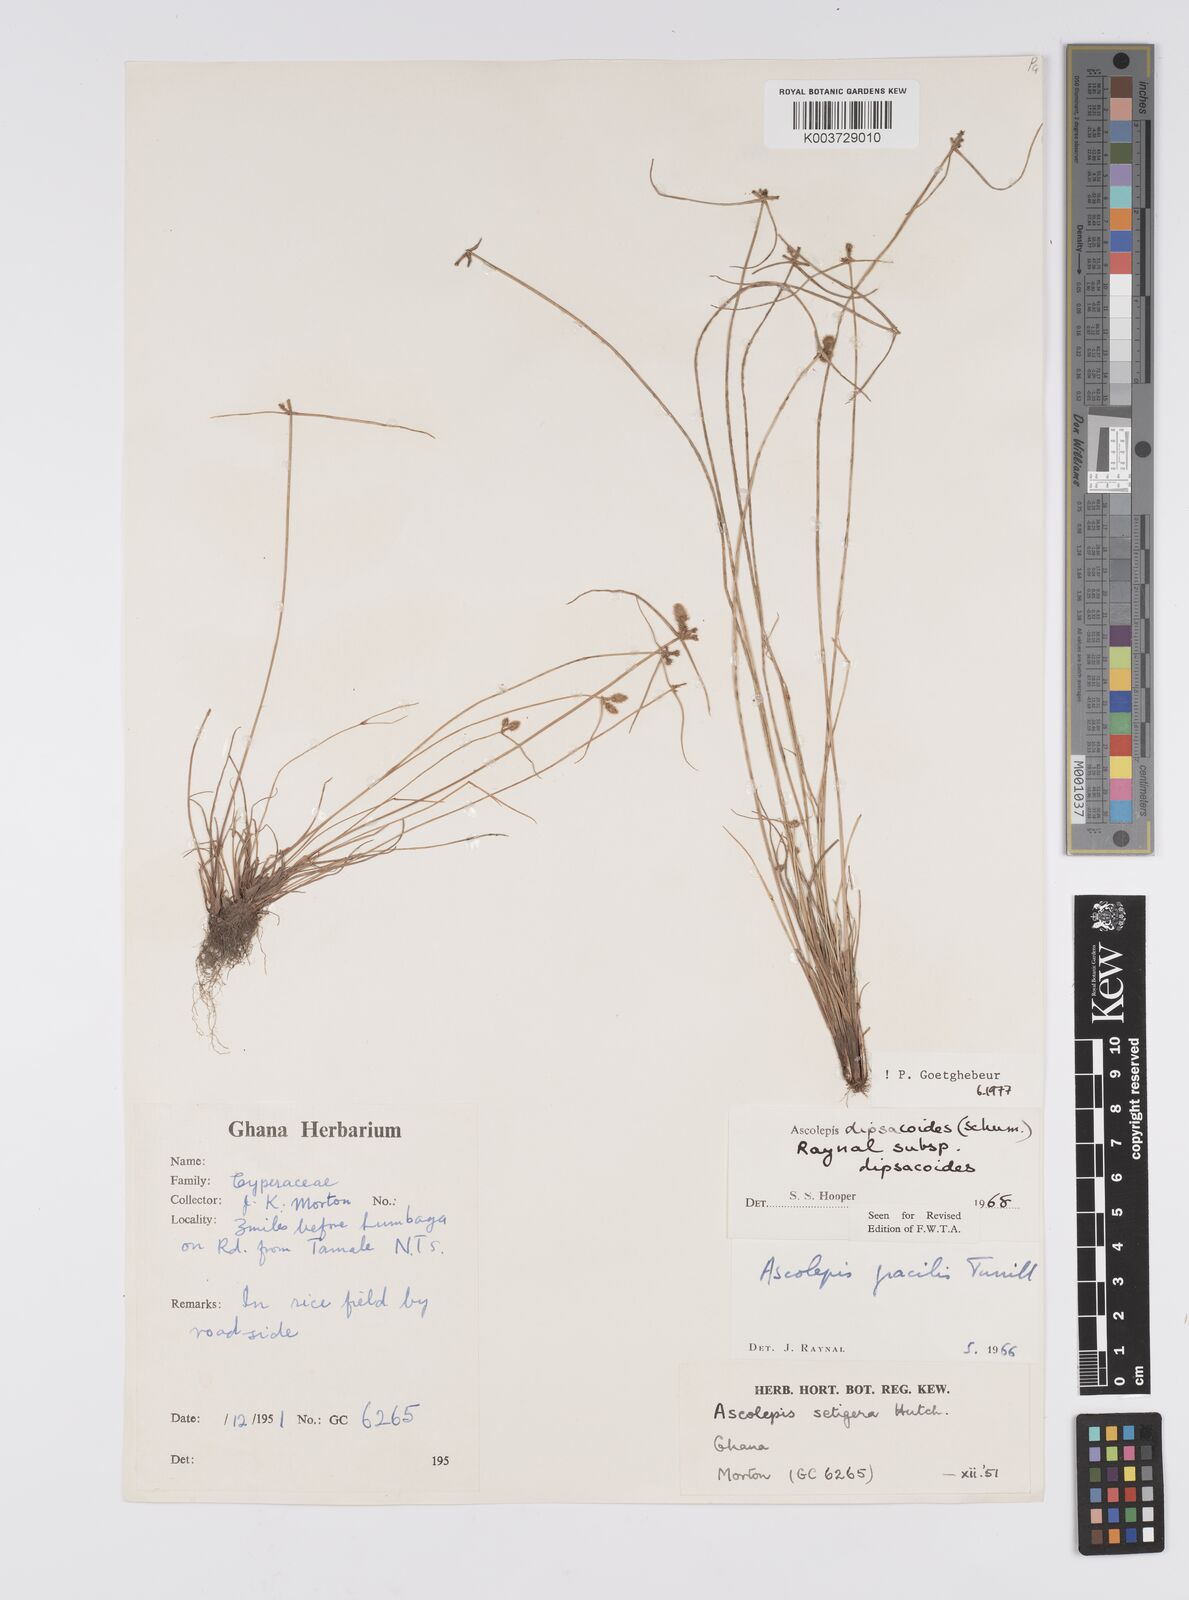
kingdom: Plantae
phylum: Tracheophyta
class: Liliopsida
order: Poales
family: Cyperaceae
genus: Cyperus
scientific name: Cyperus dipsacoides
